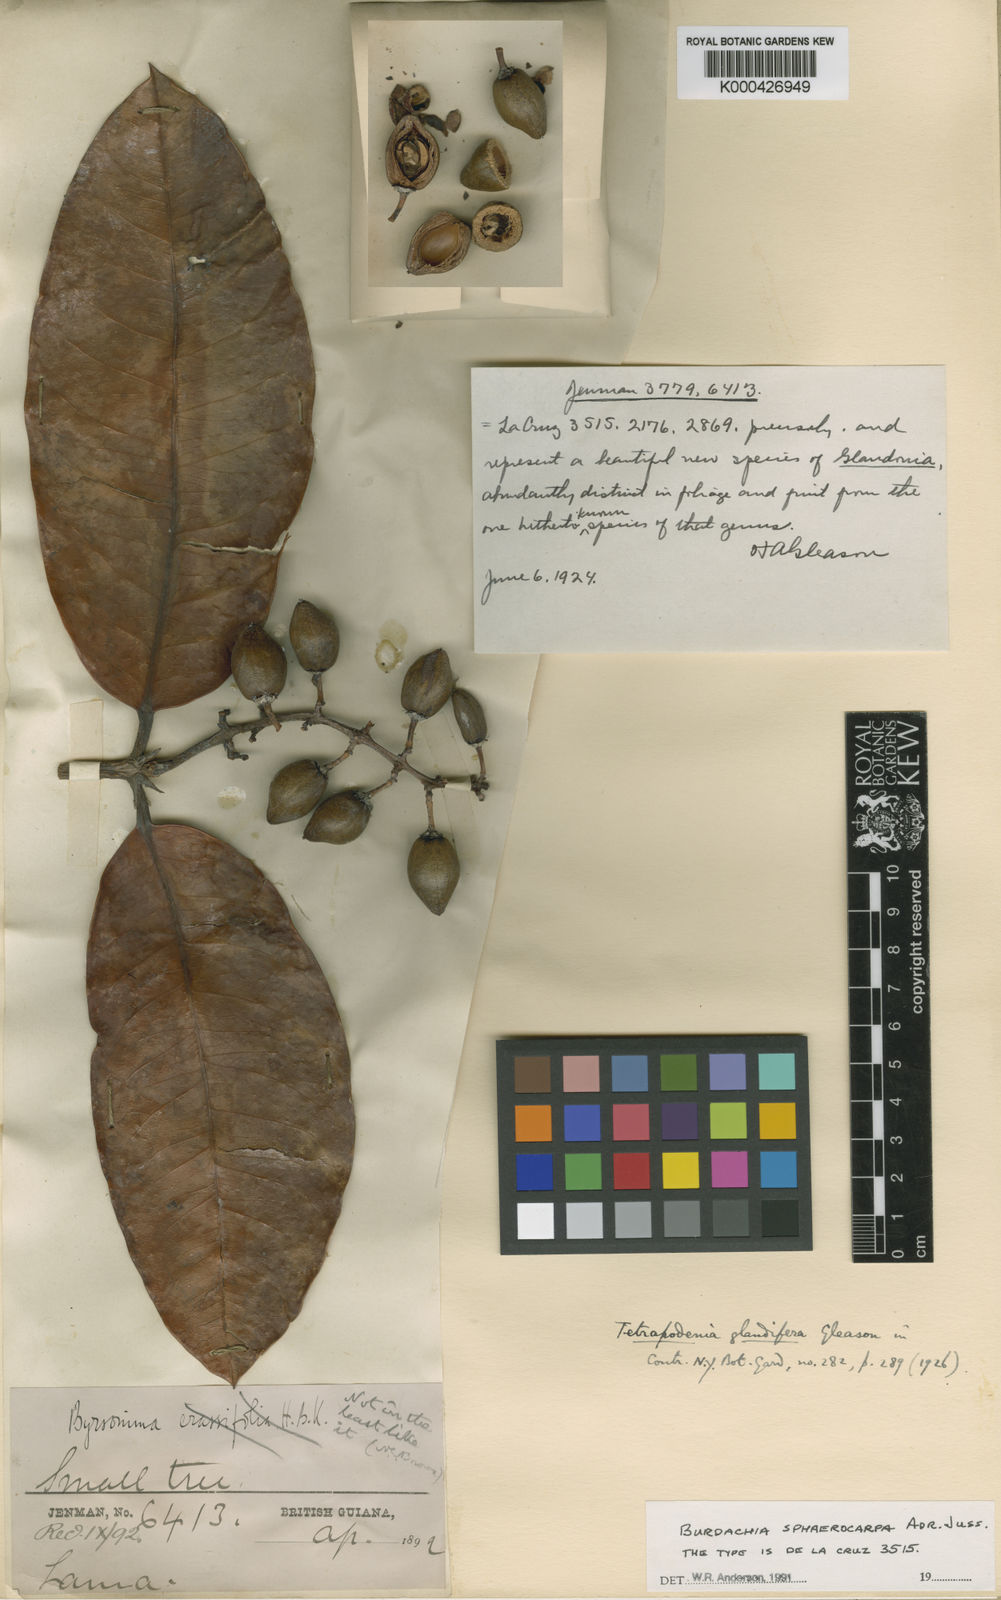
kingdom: Plantae
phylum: Tracheophyta
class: Magnoliopsida
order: Malpighiales
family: Malpighiaceae
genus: Burdachia
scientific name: Burdachia sphaerocarpa
